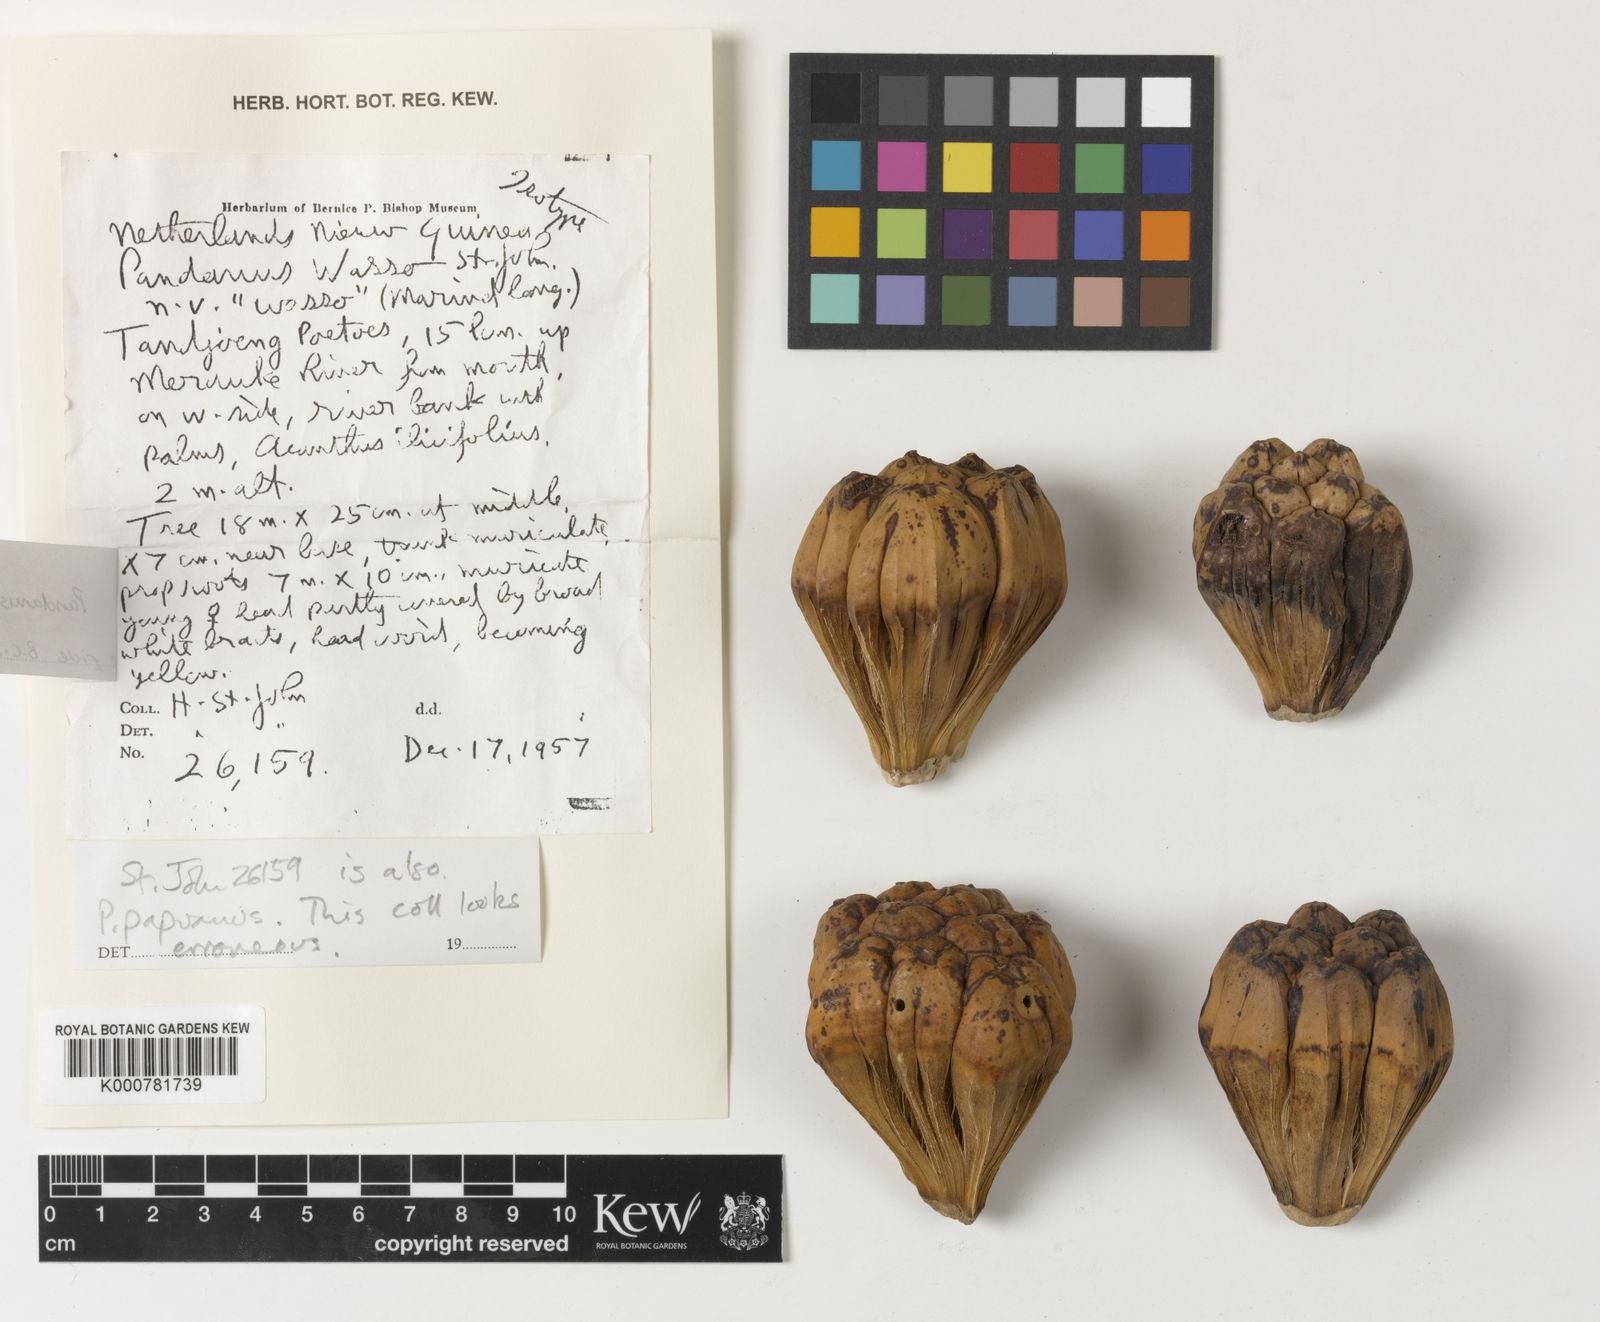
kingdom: Plantae
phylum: Tracheophyta
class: Liliopsida
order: Pandanales
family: Pandanaceae
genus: Pandanus
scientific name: Pandanus papuanus
